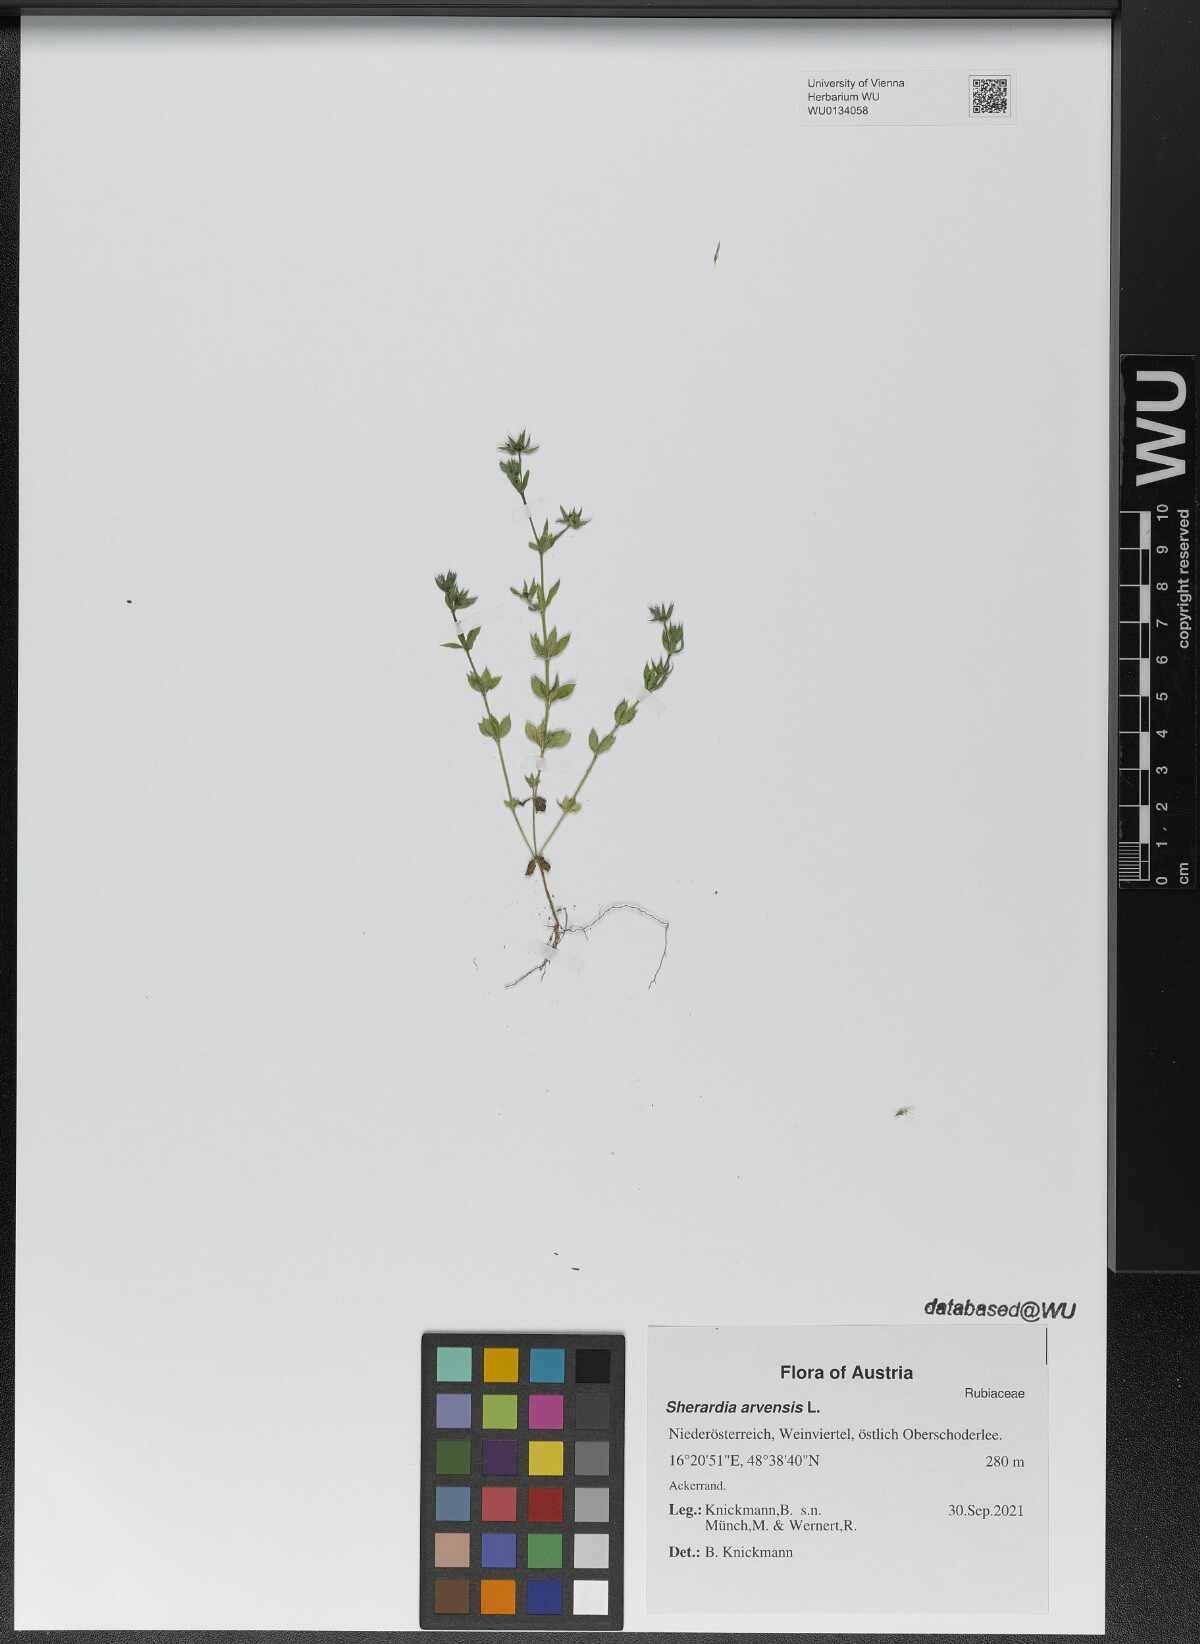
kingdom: Plantae
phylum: Tracheophyta
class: Magnoliopsida
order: Gentianales
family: Rubiaceae
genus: Sherardia
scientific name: Sherardia arvensis
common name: Field madder
